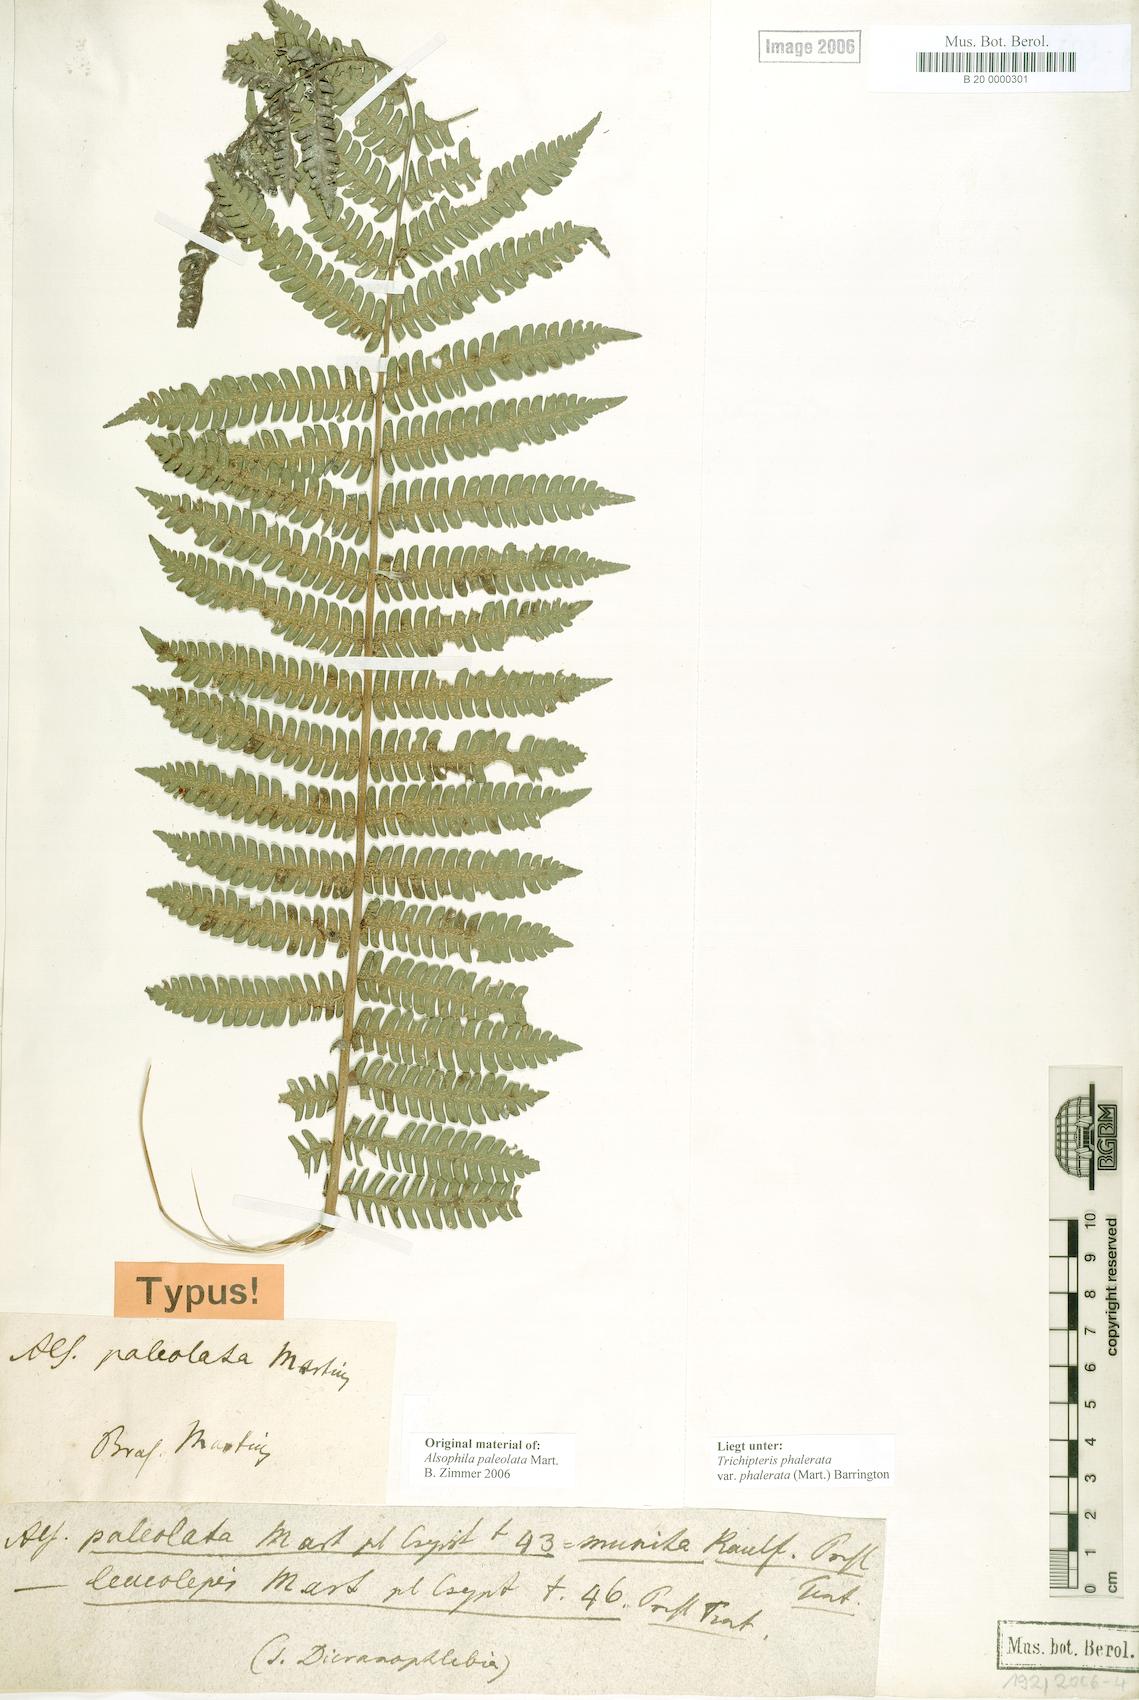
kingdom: Plantae
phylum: Tracheophyta
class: Polypodiopsida
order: Cyatheales
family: Cyatheaceae
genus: Cyathea
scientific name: Cyathea phalerata
